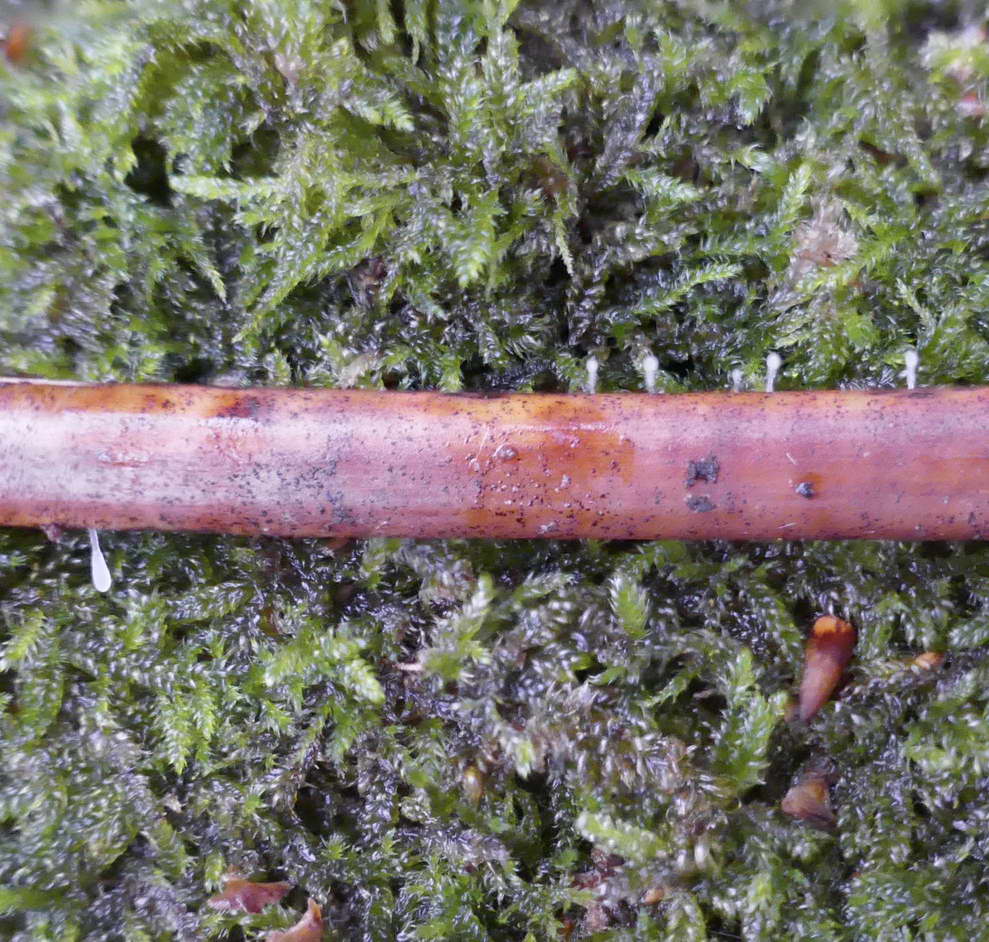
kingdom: Fungi
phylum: Basidiomycota
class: Agaricomycetes
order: Agaricales
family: Typhulaceae
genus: Typhula
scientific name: Typhula quisquiliaris
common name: ørnebregne-trådkølle
